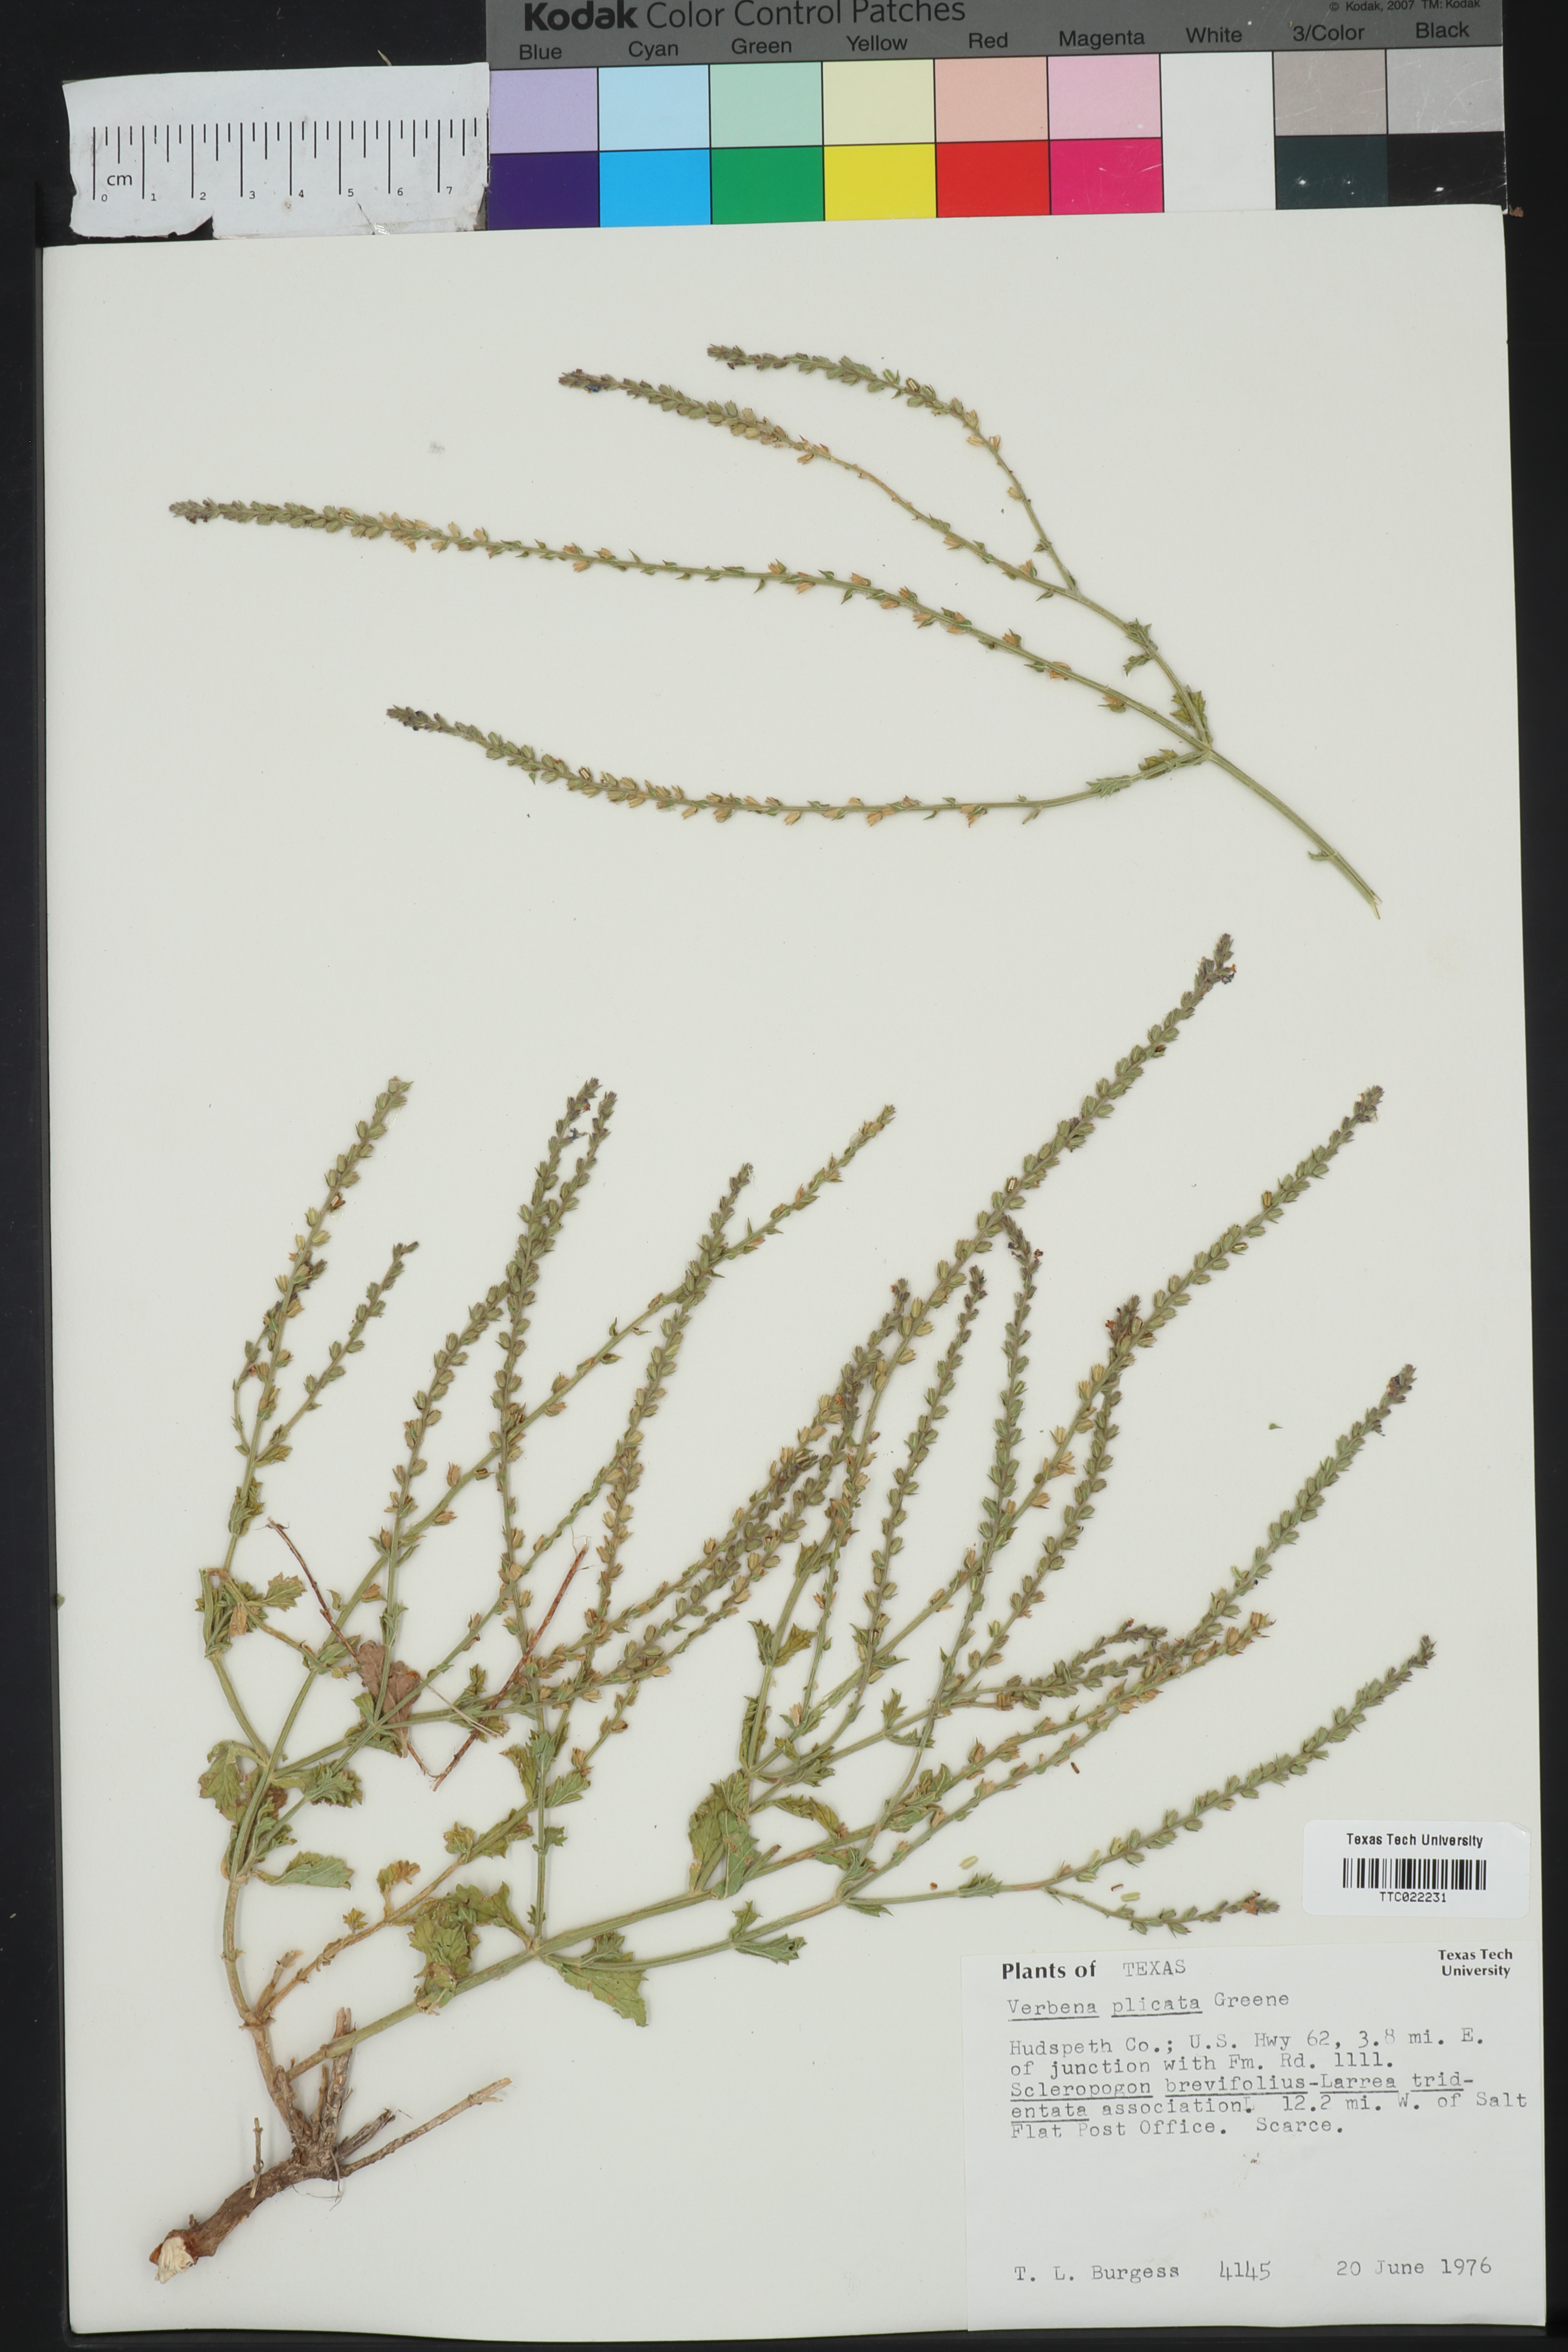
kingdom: Plantae
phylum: Tracheophyta
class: Magnoliopsida
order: Lamiales
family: Verbenaceae
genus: Verbena
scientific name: Verbena plicata
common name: Fan-leaf vervain
